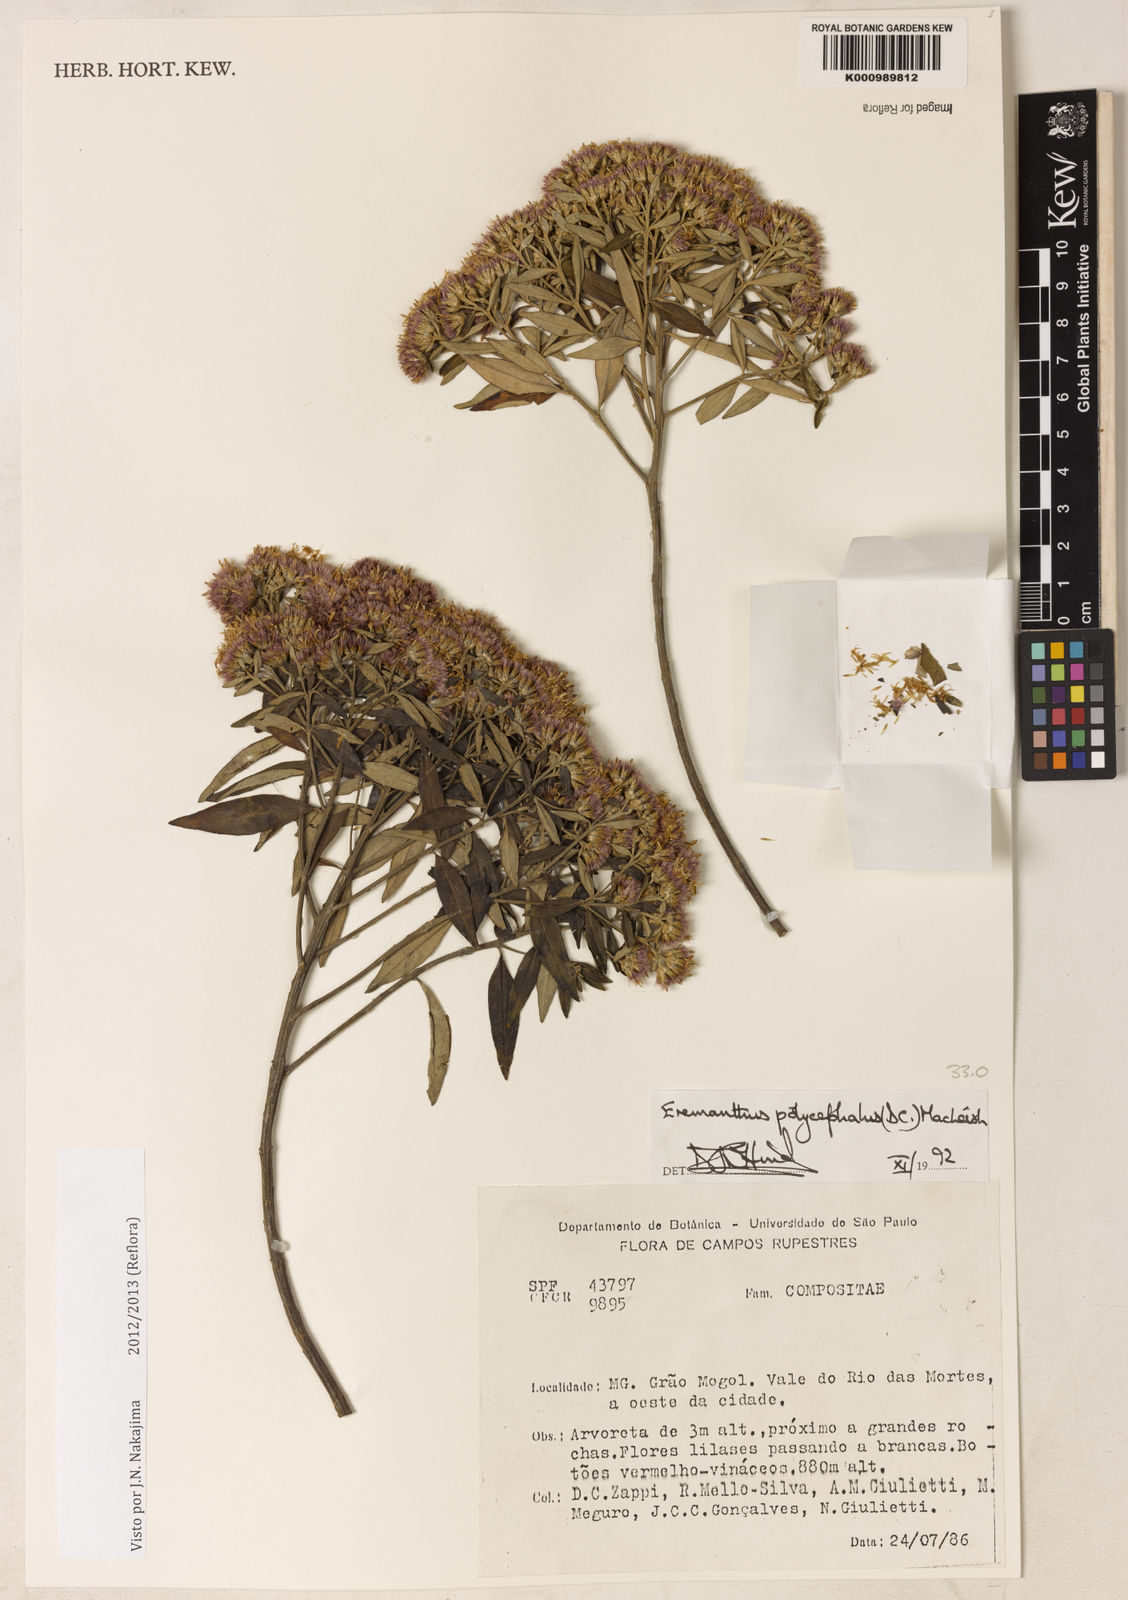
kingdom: Plantae
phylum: Tracheophyta
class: Magnoliopsida
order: Asterales
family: Asteraceae
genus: Eremanthus
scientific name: Eremanthus polycephalus
